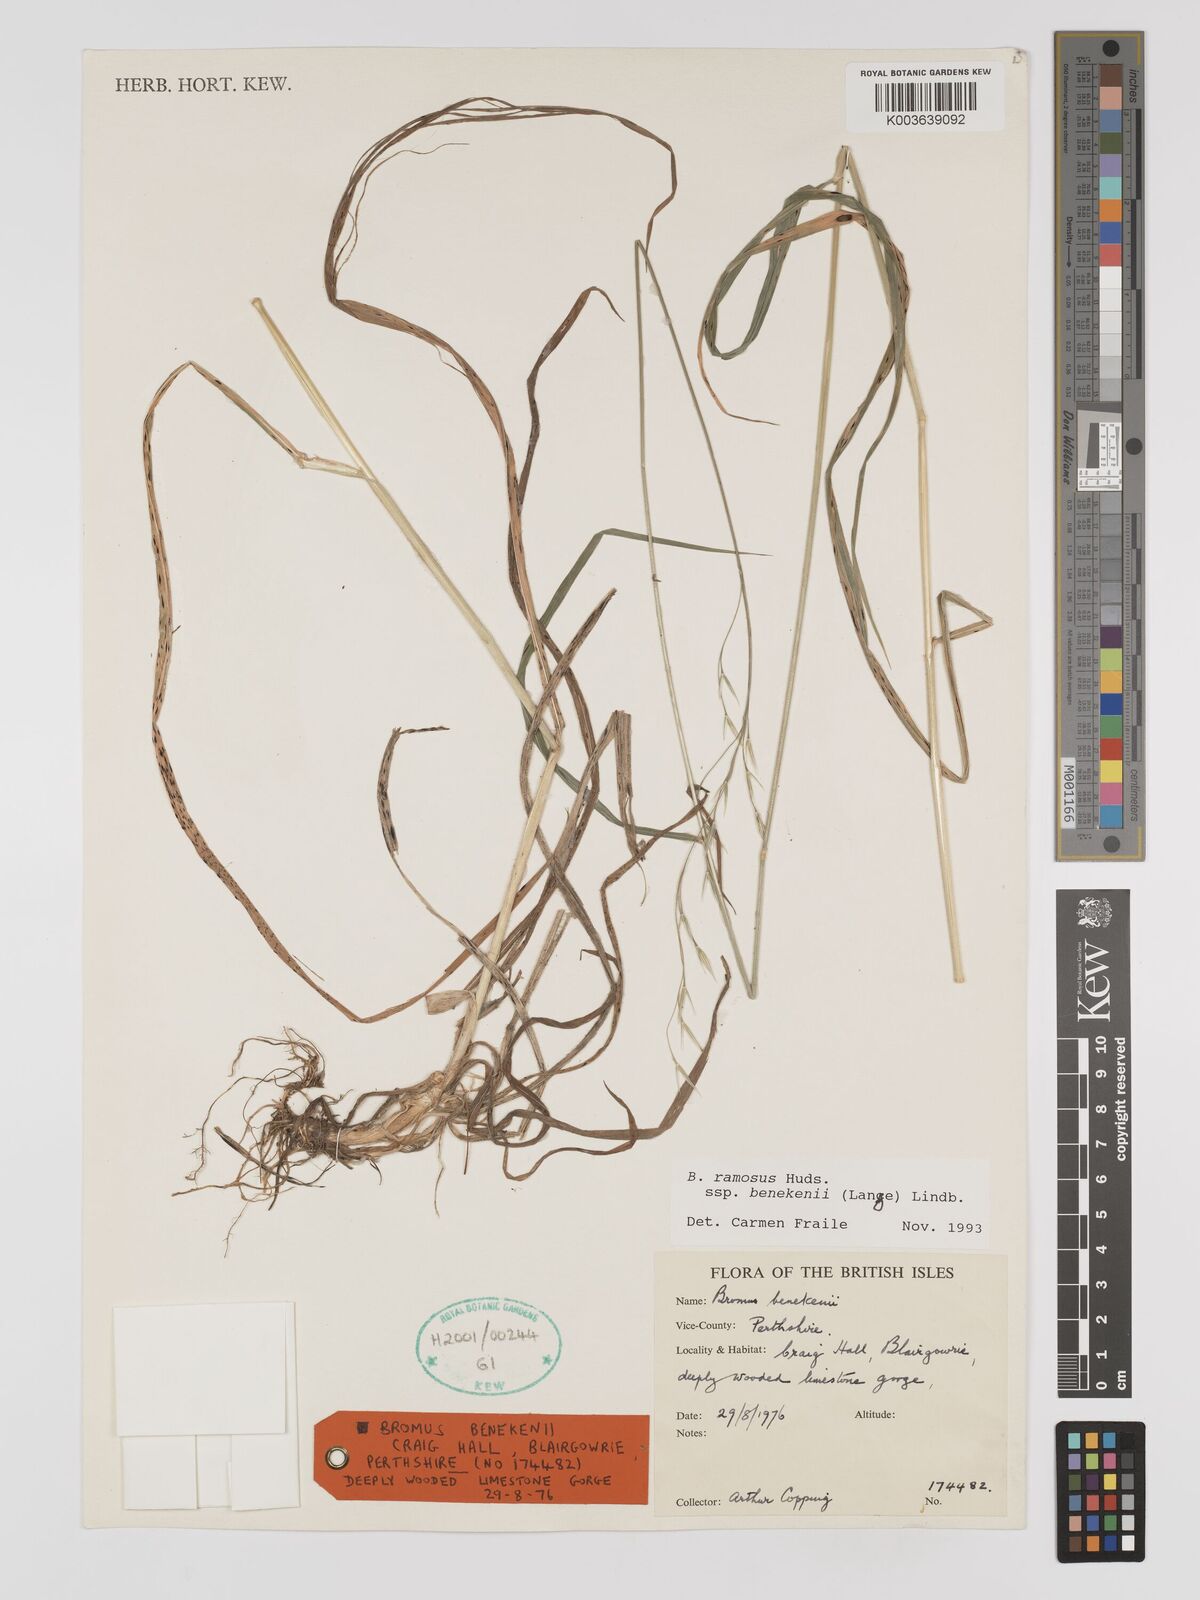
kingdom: Plantae
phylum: Tracheophyta
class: Liliopsida
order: Poales
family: Poaceae
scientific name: Poaceae
